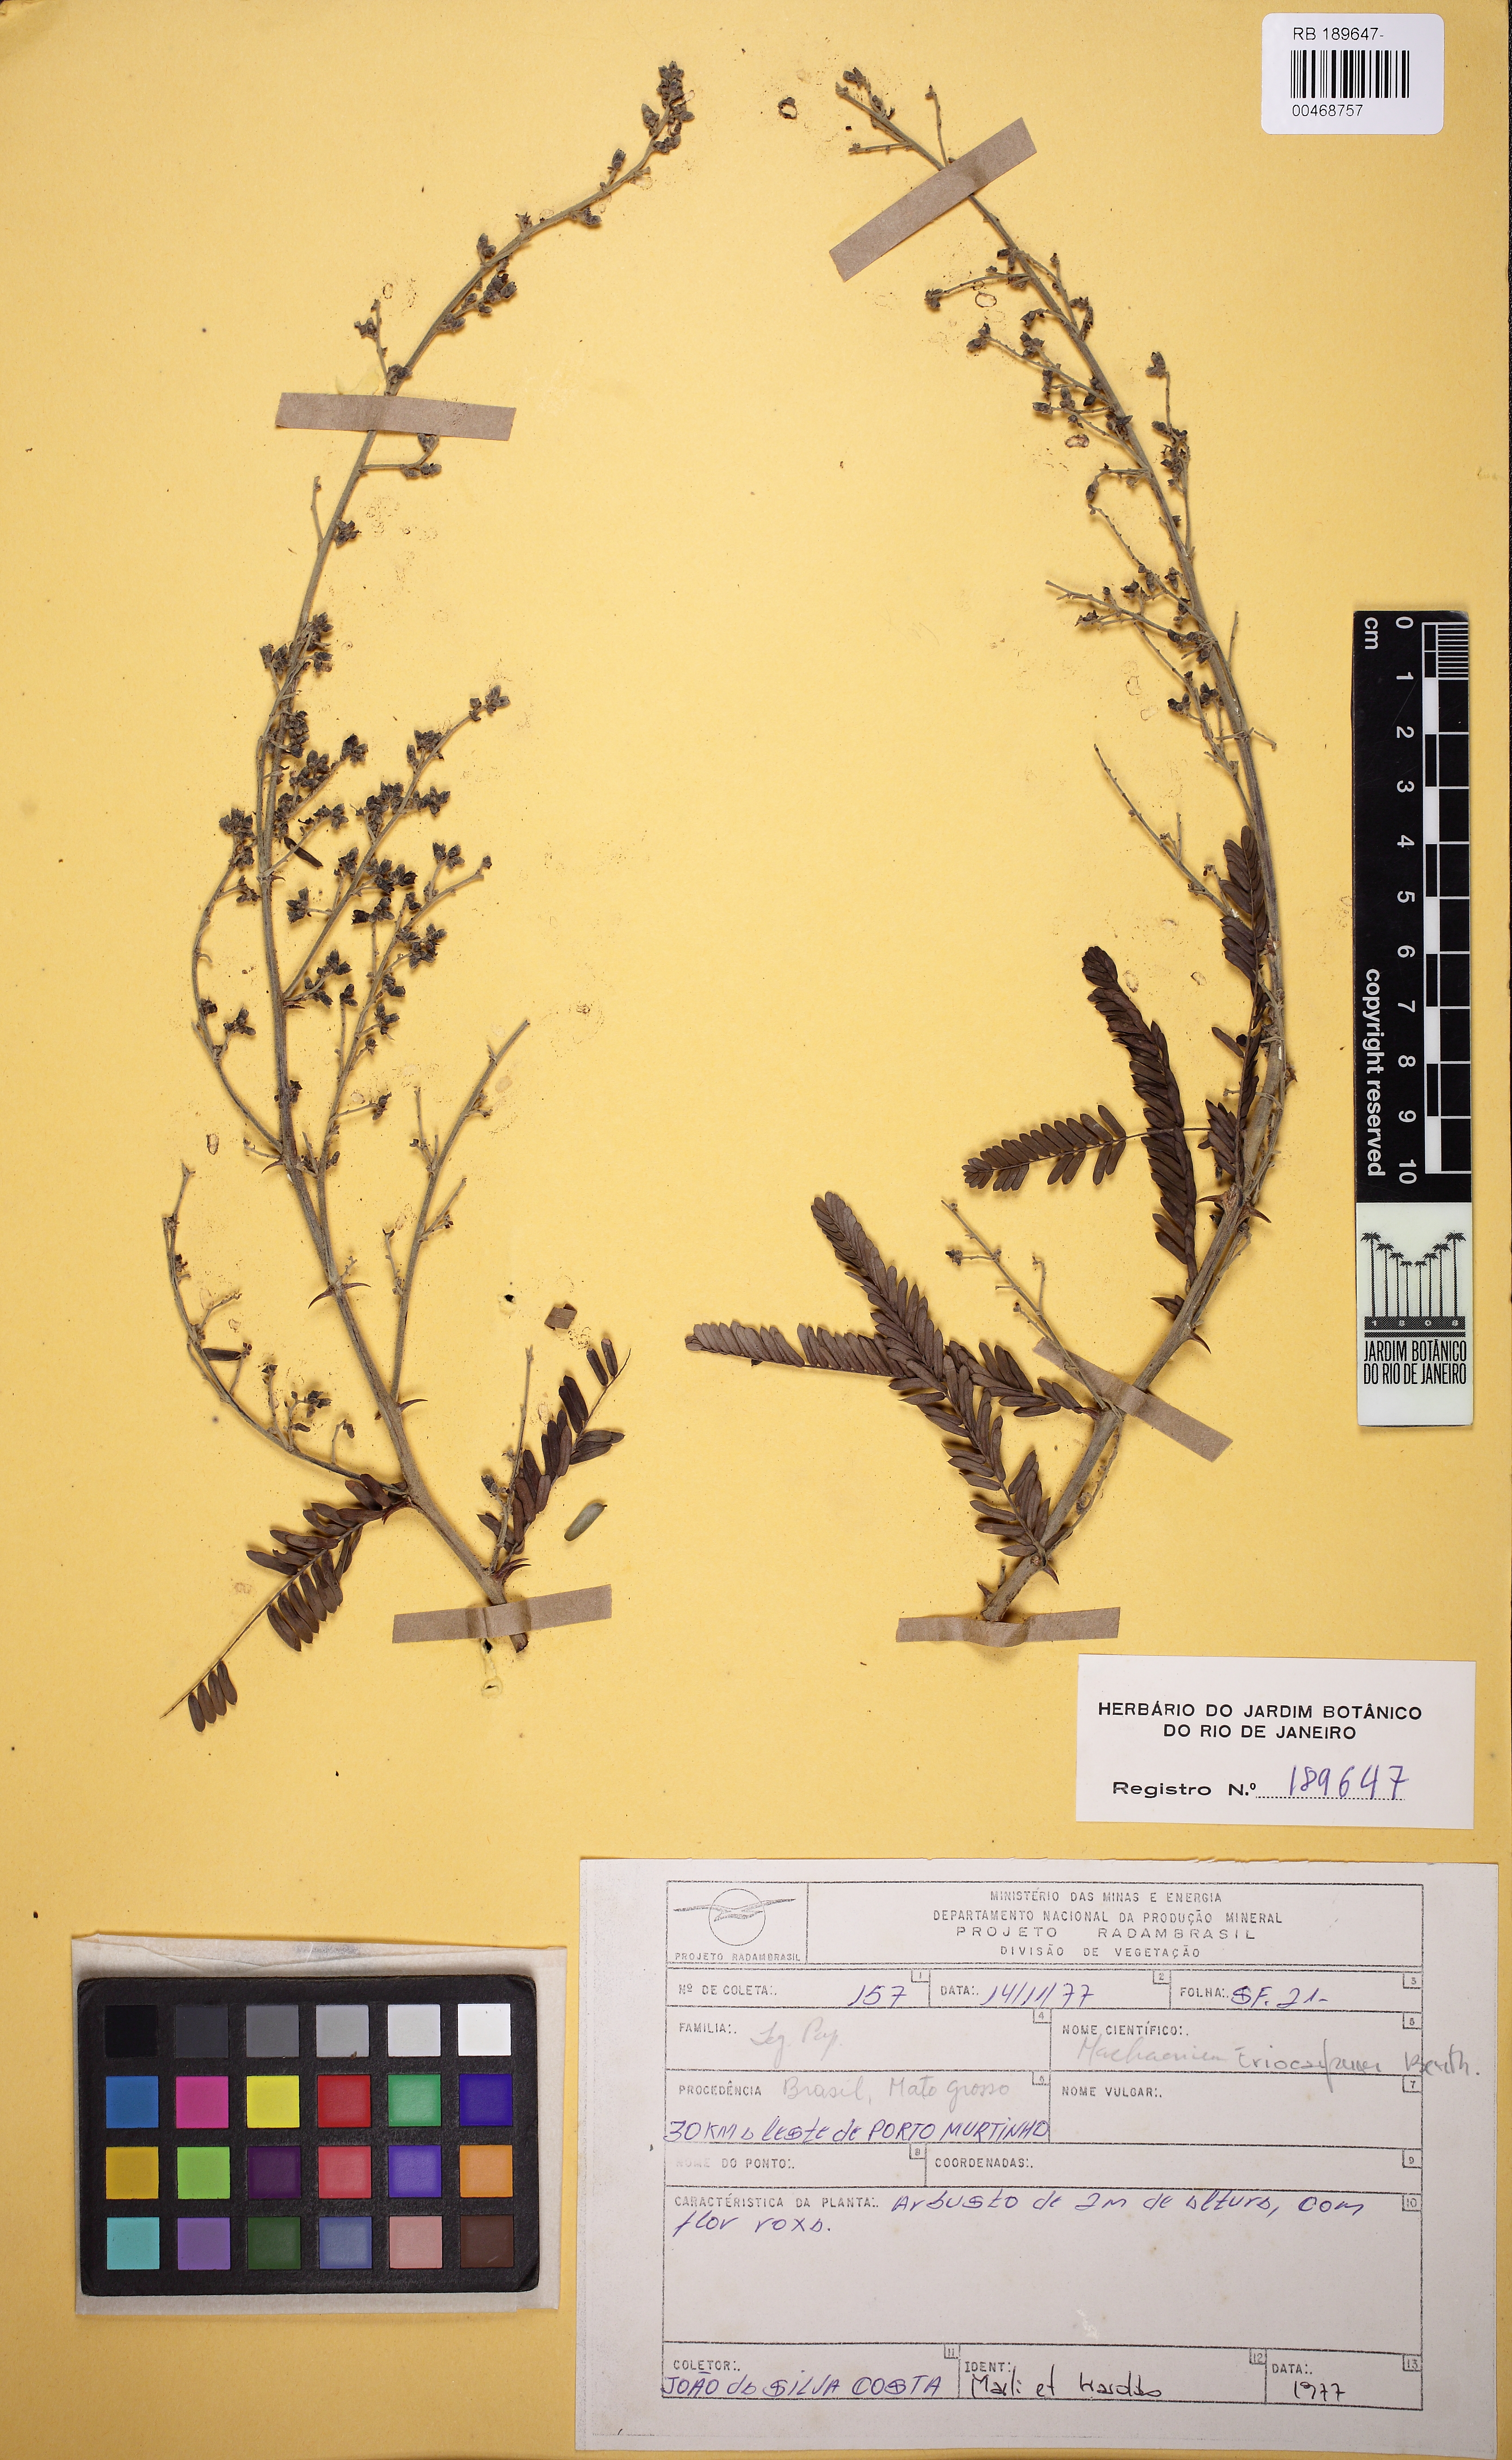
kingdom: Plantae
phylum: Tracheophyta
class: Magnoliopsida
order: Fabales
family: Fabaceae
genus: Machaerium
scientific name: Machaerium eriocarpum
